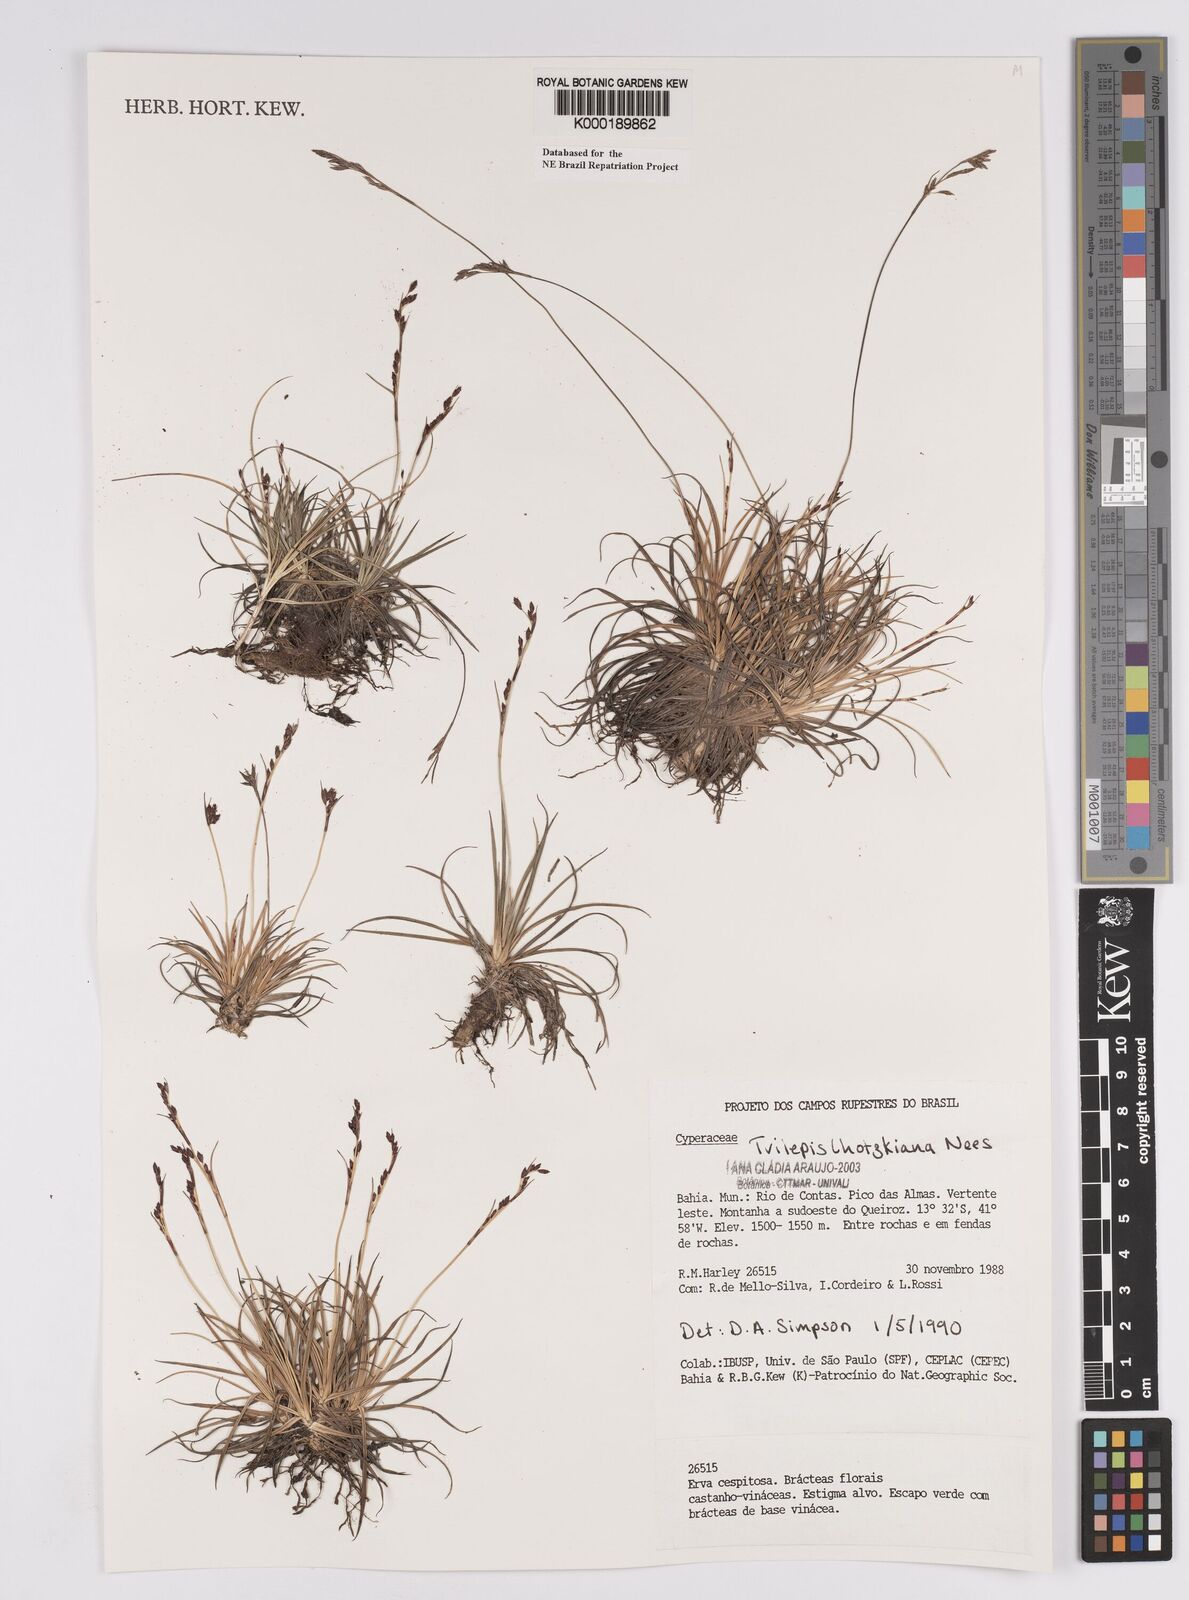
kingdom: Plantae
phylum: Tracheophyta
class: Liliopsida
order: Poales
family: Cyperaceae
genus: Trilepis
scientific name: Trilepis lhotzkiana
